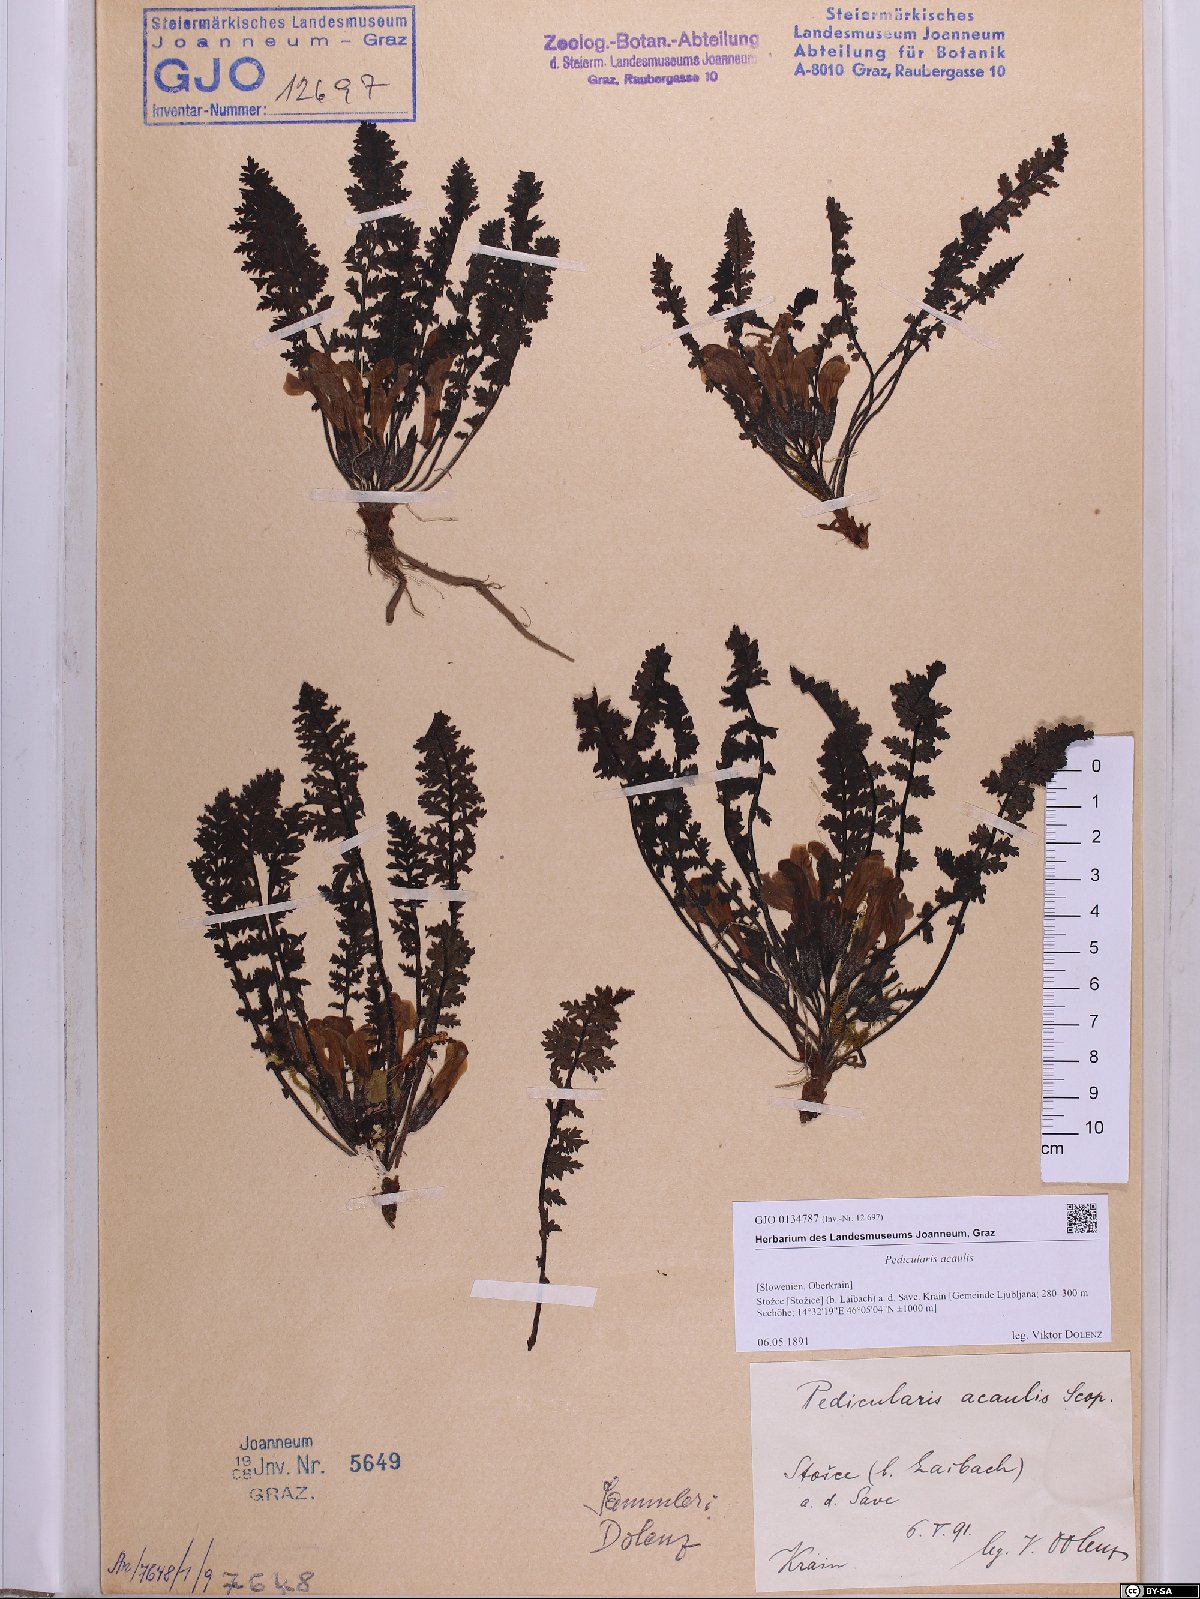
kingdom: Plantae
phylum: Tracheophyta
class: Magnoliopsida
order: Lamiales
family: Orobanchaceae
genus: Pedicularis
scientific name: Pedicularis acaulis
